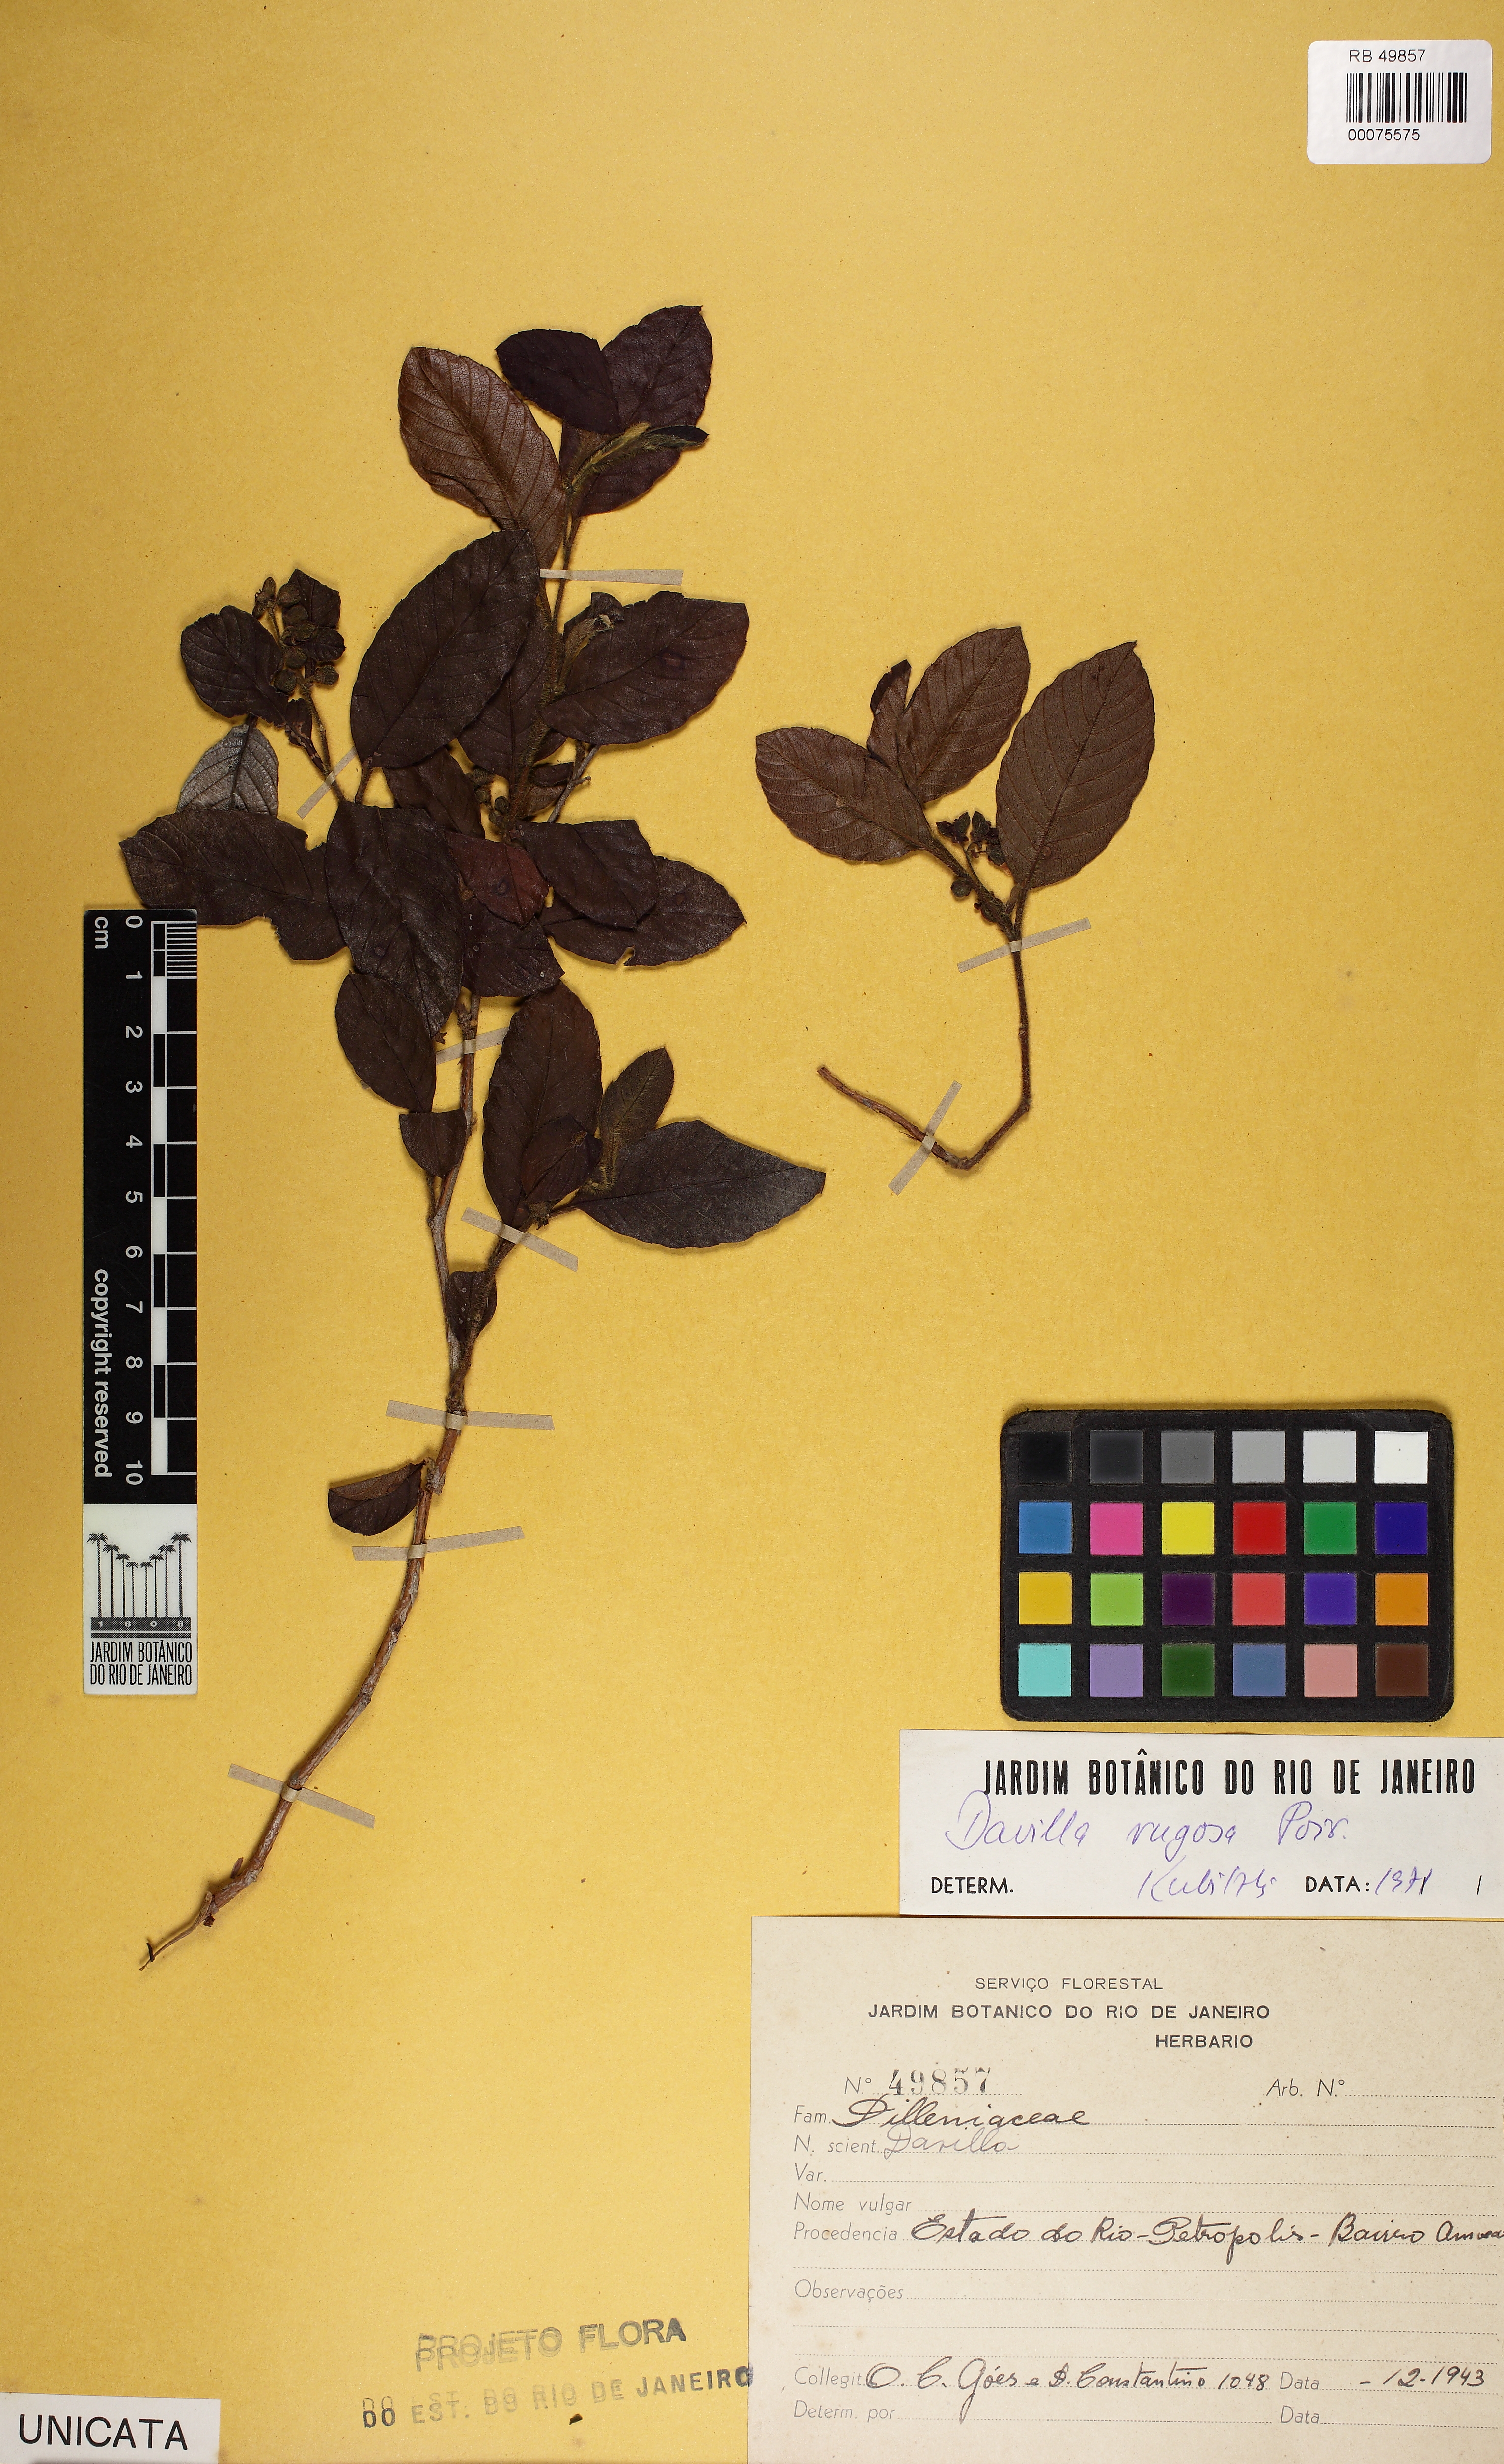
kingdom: Plantae
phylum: Tracheophyta
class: Magnoliopsida
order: Dilleniales
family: Dilleniaceae
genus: Davilla
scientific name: Davilla rugosa
